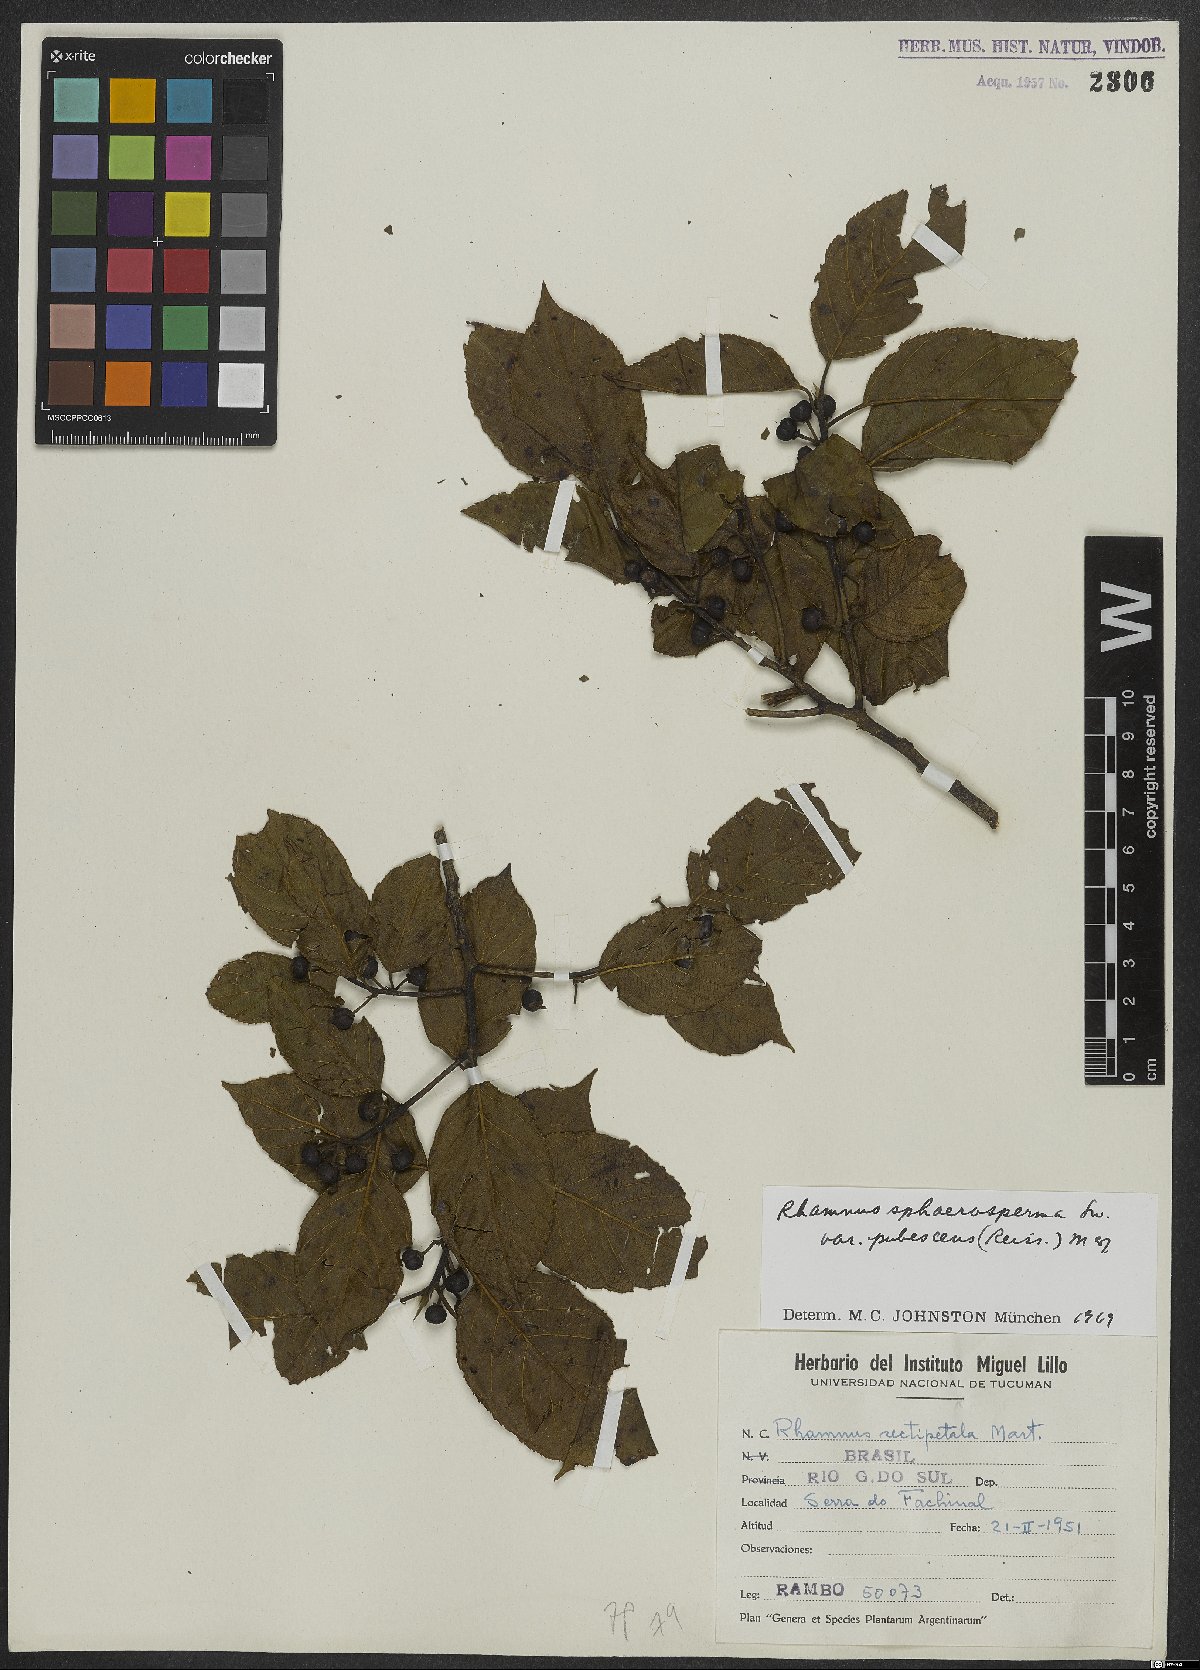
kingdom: Plantae
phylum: Tracheophyta
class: Magnoliopsida
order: Rosales
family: Rhamnaceae
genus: Frangula
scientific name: Frangula sphaerosperma
